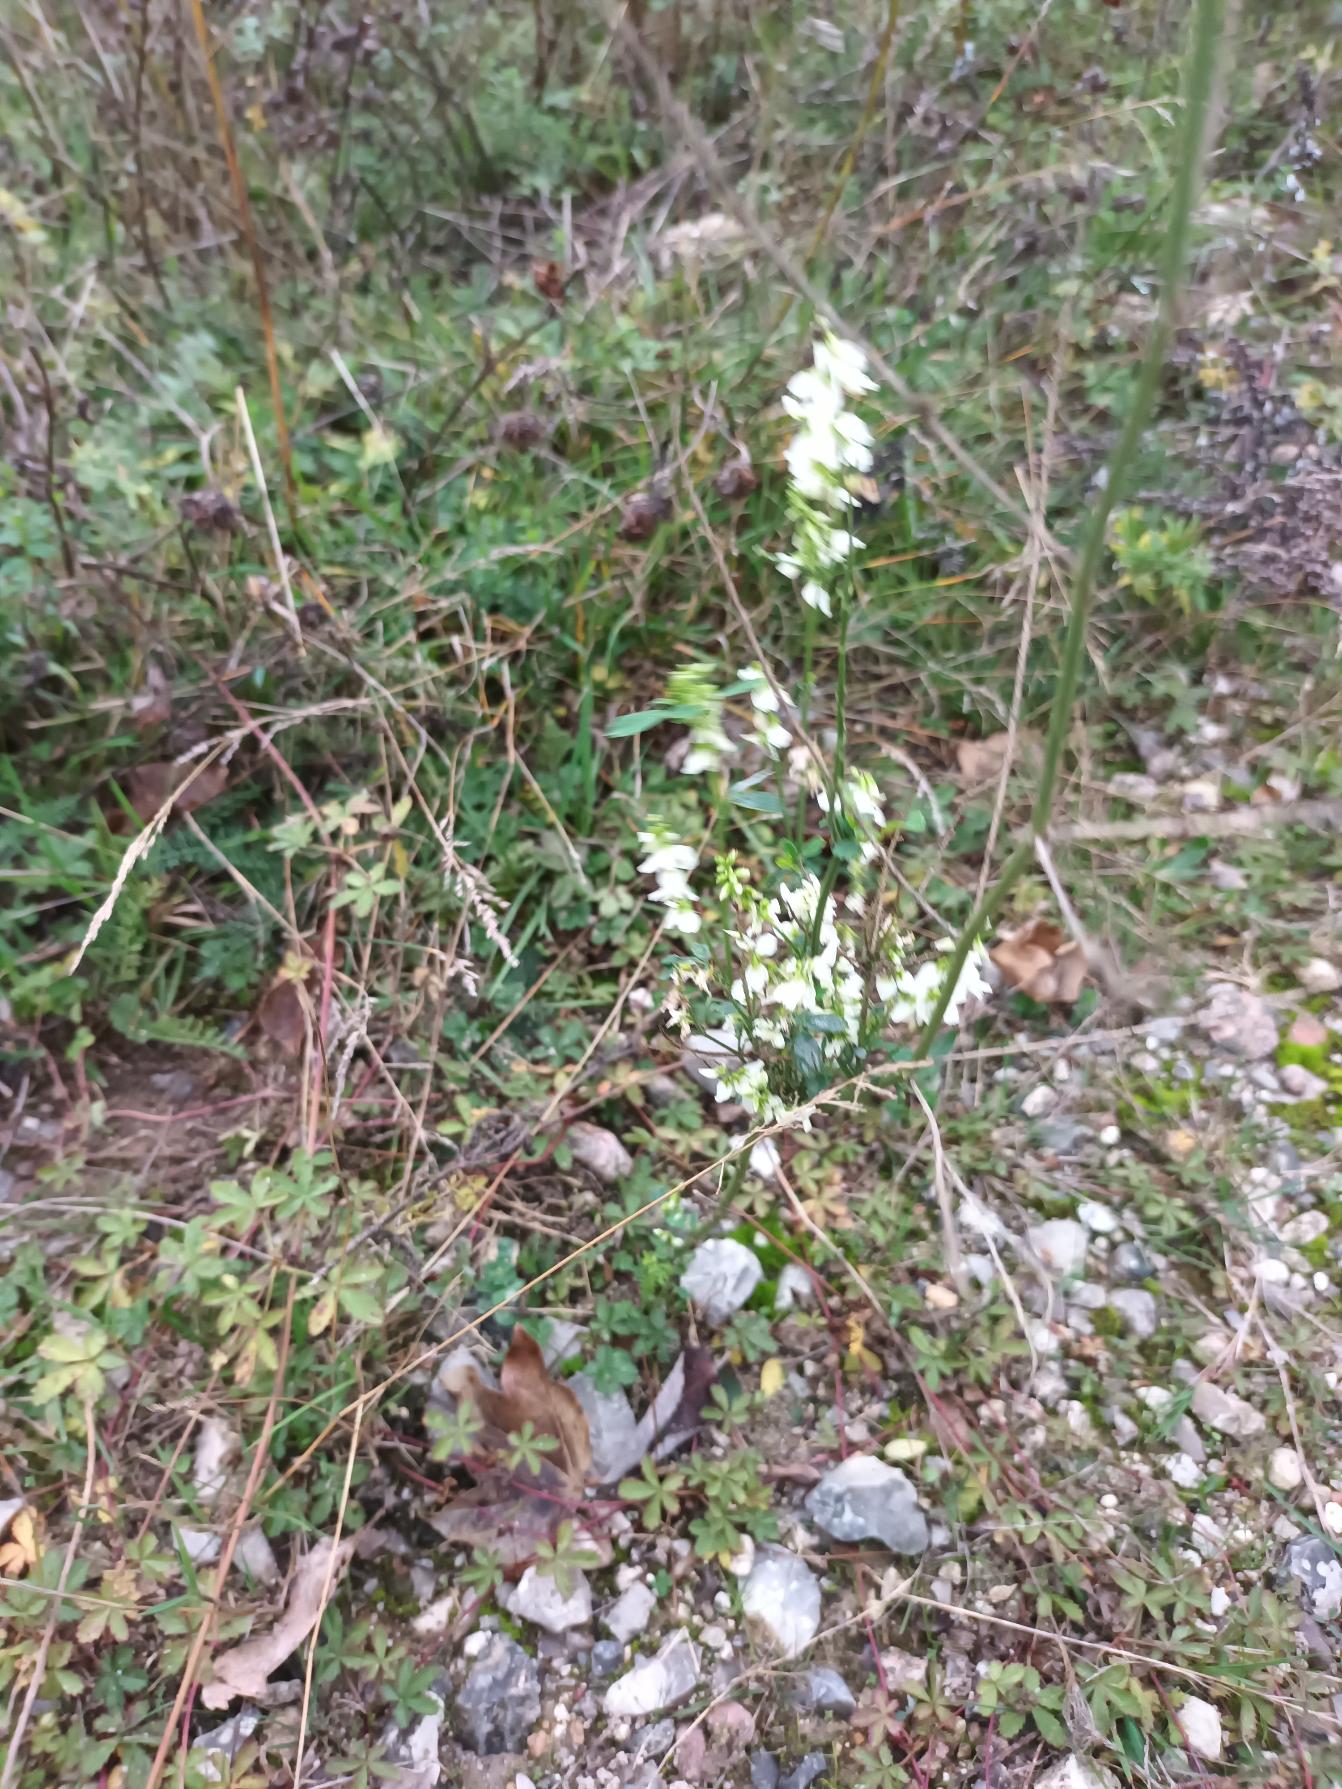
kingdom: Plantae
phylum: Tracheophyta
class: Magnoliopsida
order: Fabales
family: Fabaceae
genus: Melilotus
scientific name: Melilotus albus
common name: Hvid stenkløver
